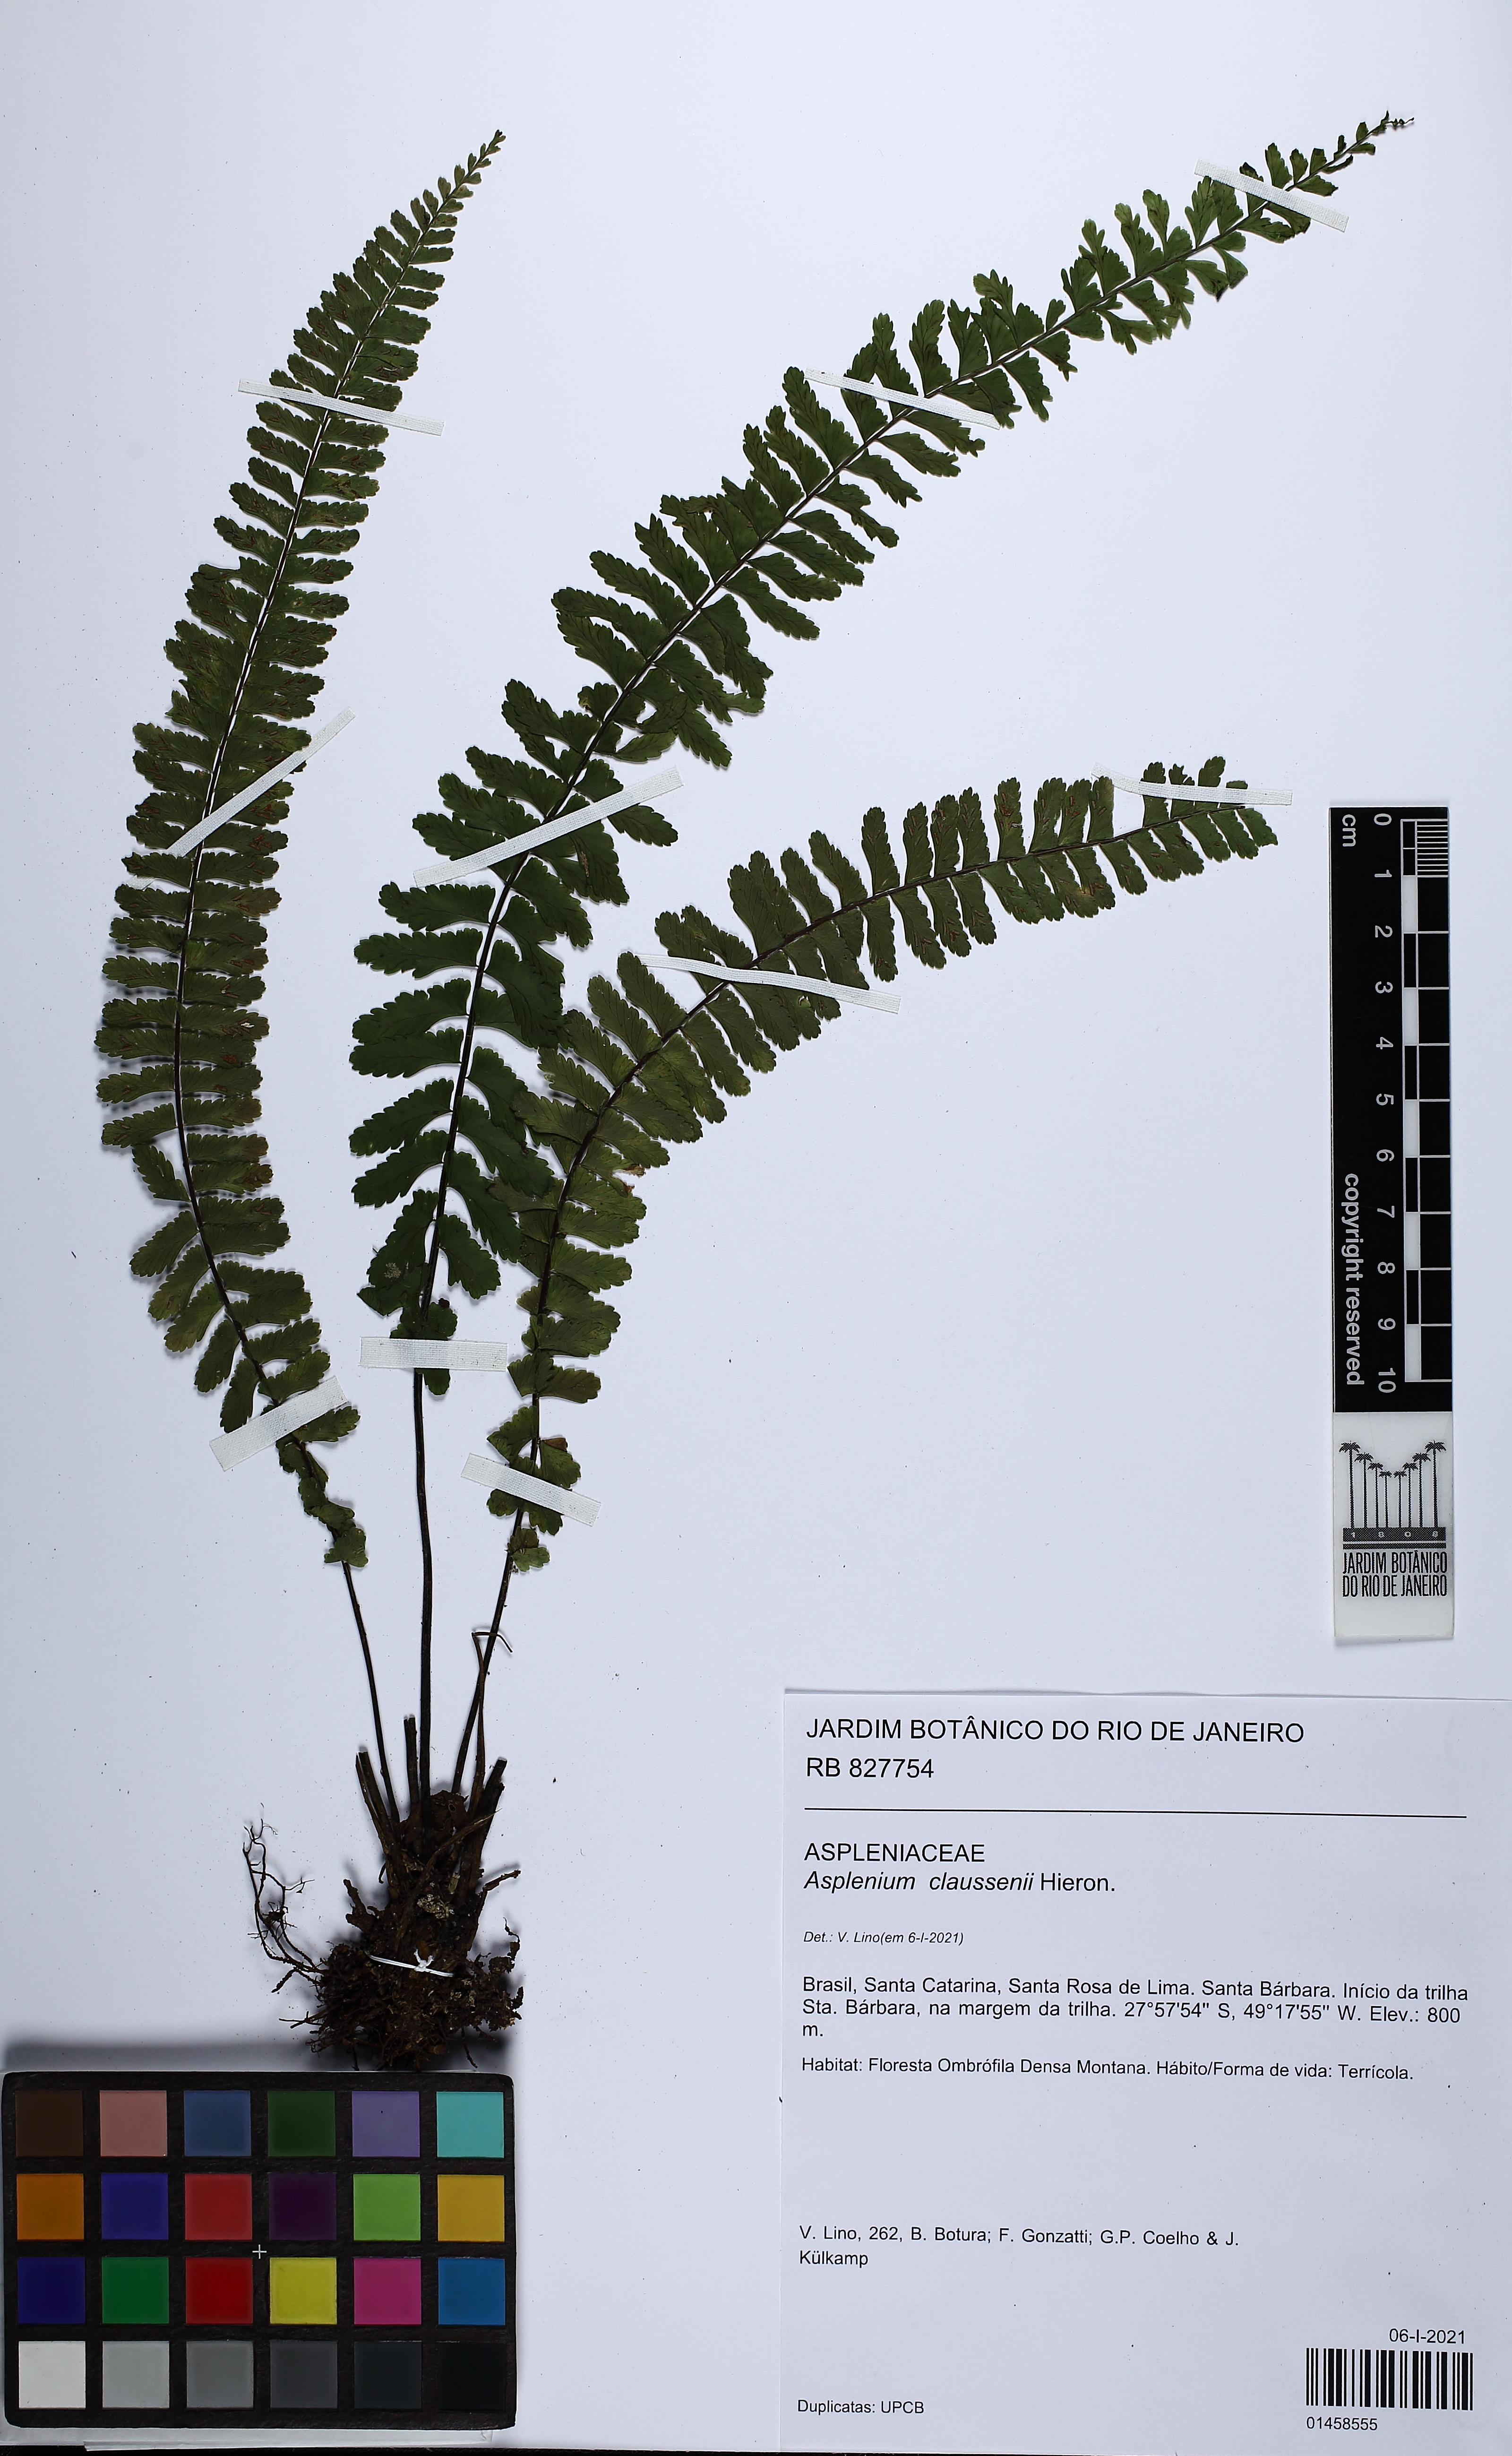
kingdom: Plantae
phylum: Tracheophyta
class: Polypodiopsida
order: Polypodiales
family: Aspleniaceae
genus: Asplenium
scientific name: Asplenium claussenii
